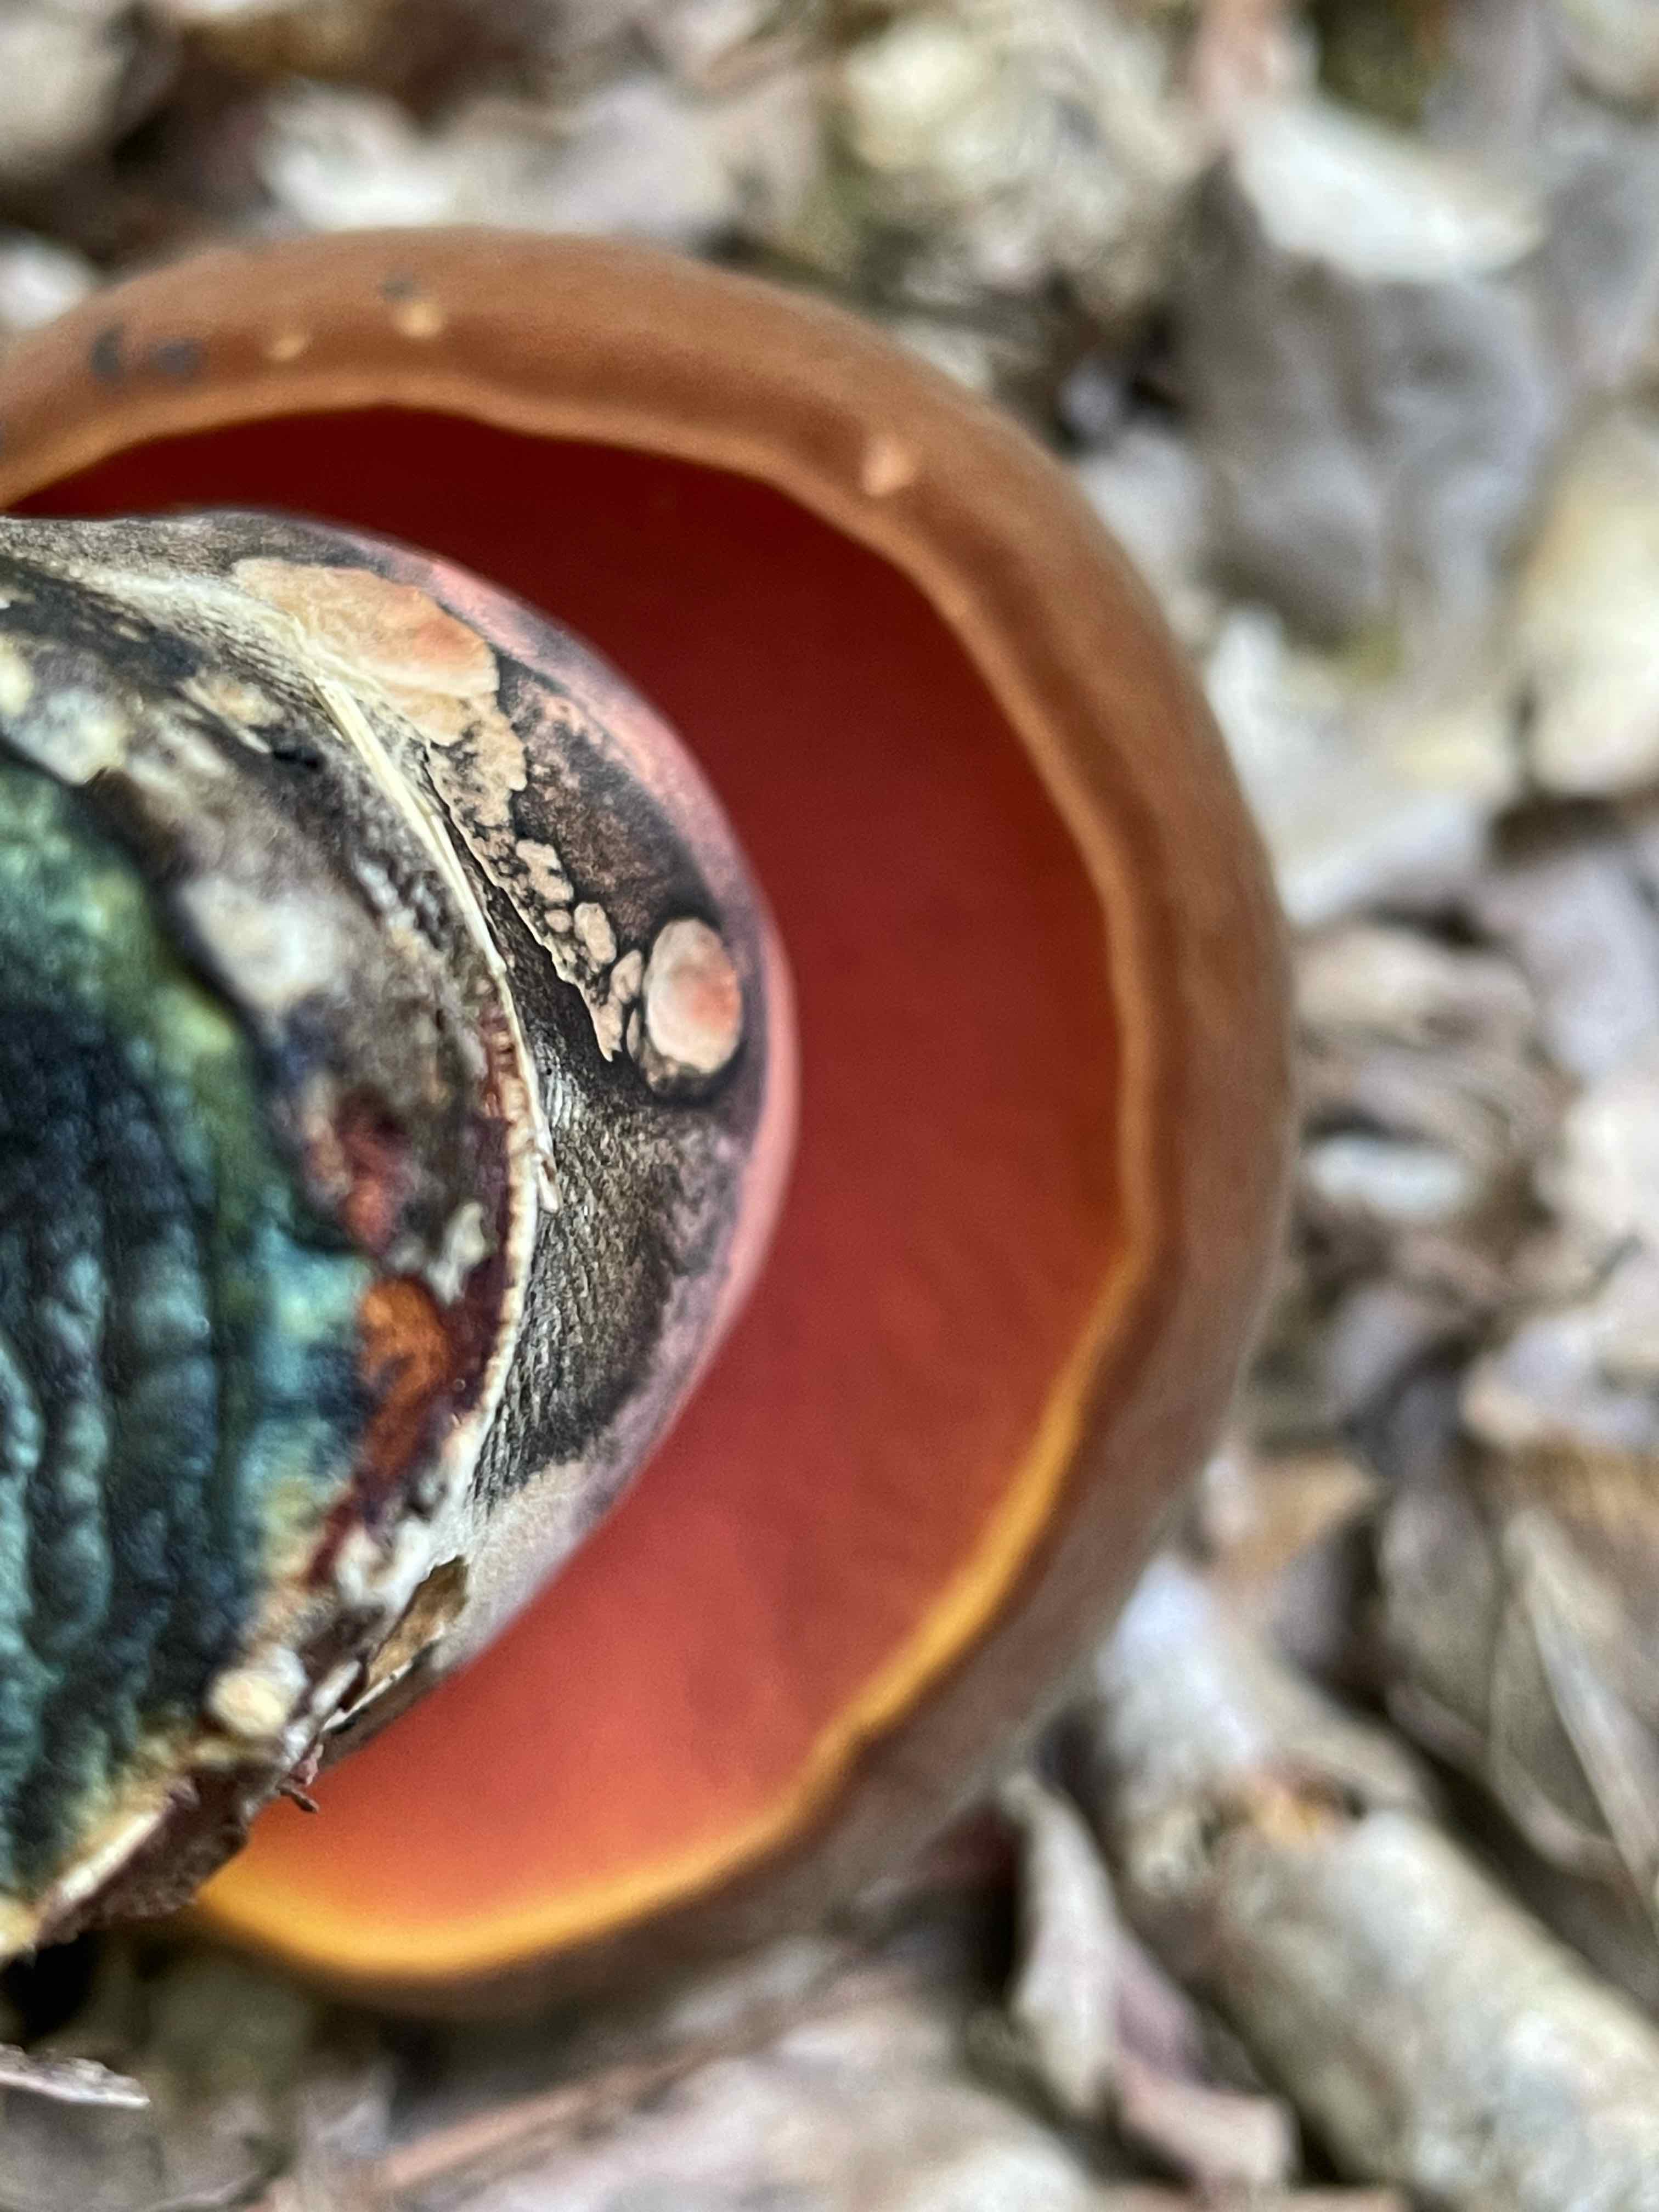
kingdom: Fungi
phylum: Basidiomycota
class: Agaricomycetes
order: Boletales
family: Boletaceae
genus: Neoboletus
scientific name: Neoboletus erythropus
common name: punktstokket indigorørhat
